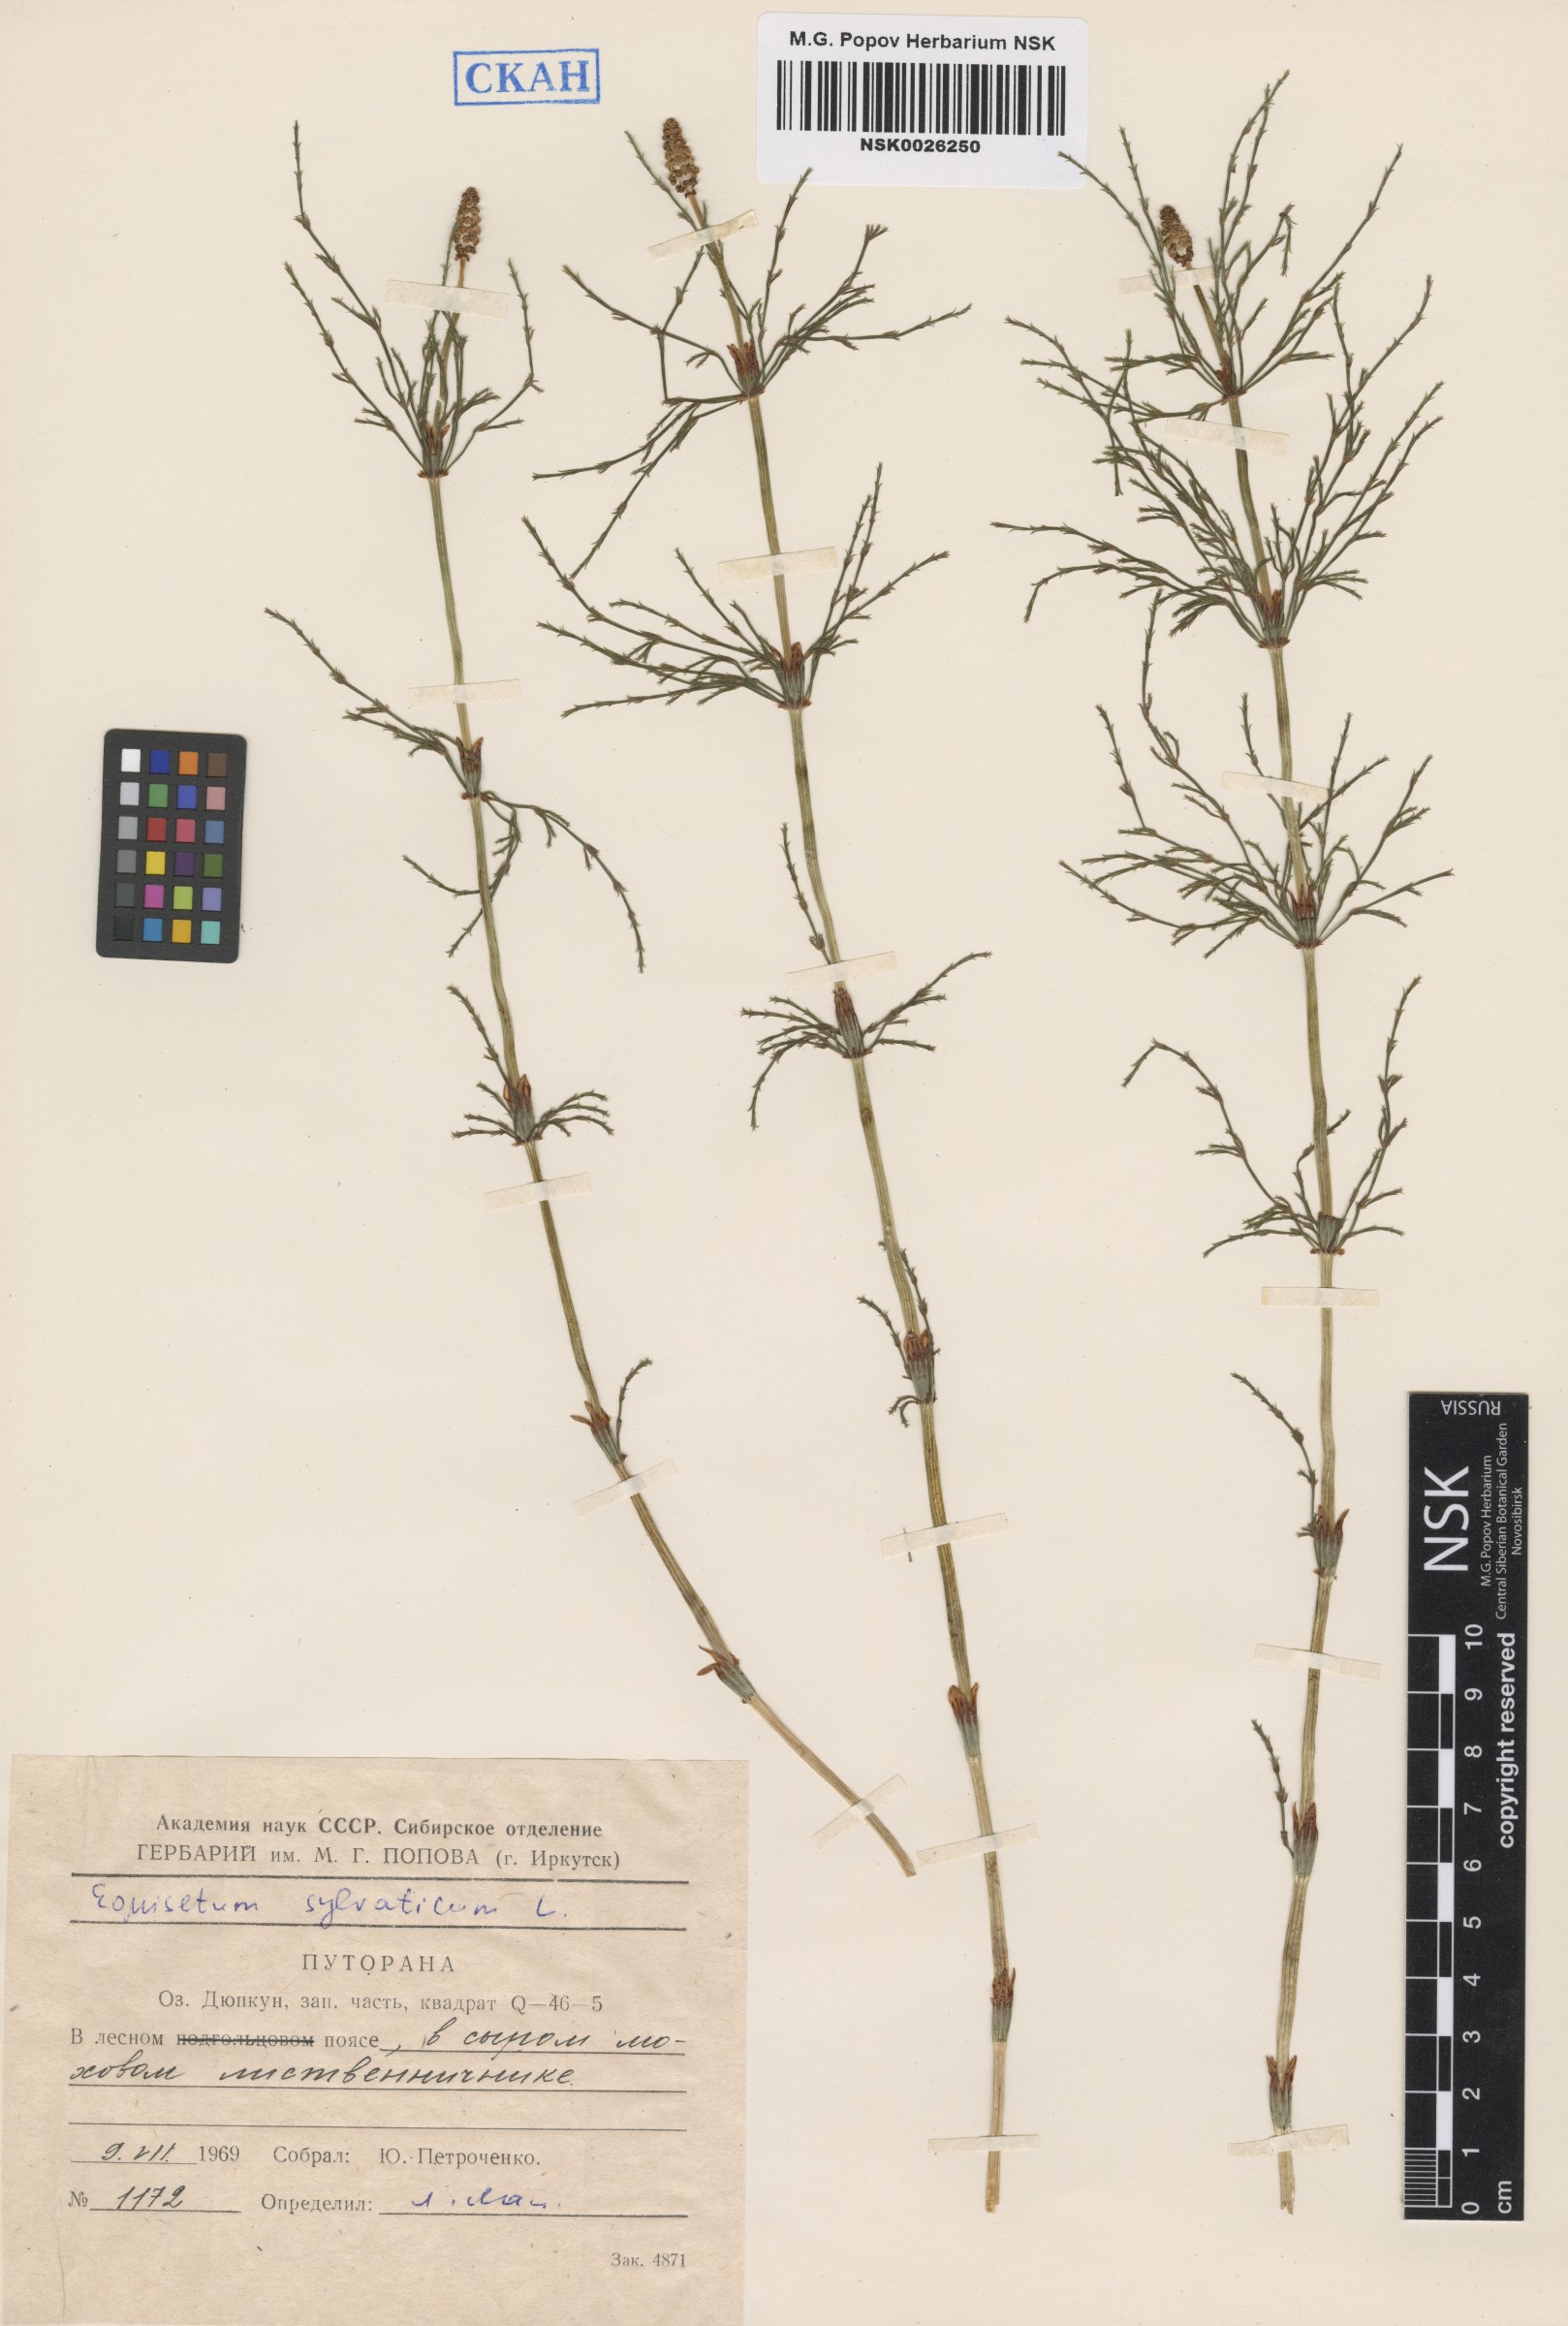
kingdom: Plantae
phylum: Tracheophyta
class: Polypodiopsida
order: Equisetales
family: Equisetaceae
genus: Equisetum
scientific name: Equisetum sylvaticum
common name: Wood horsetail
